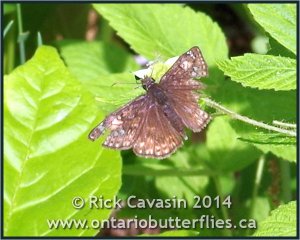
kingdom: Animalia
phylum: Arthropoda
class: Insecta
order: Lepidoptera
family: Hesperiidae
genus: Gesta
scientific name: Gesta
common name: Juvenal's Duskywing
